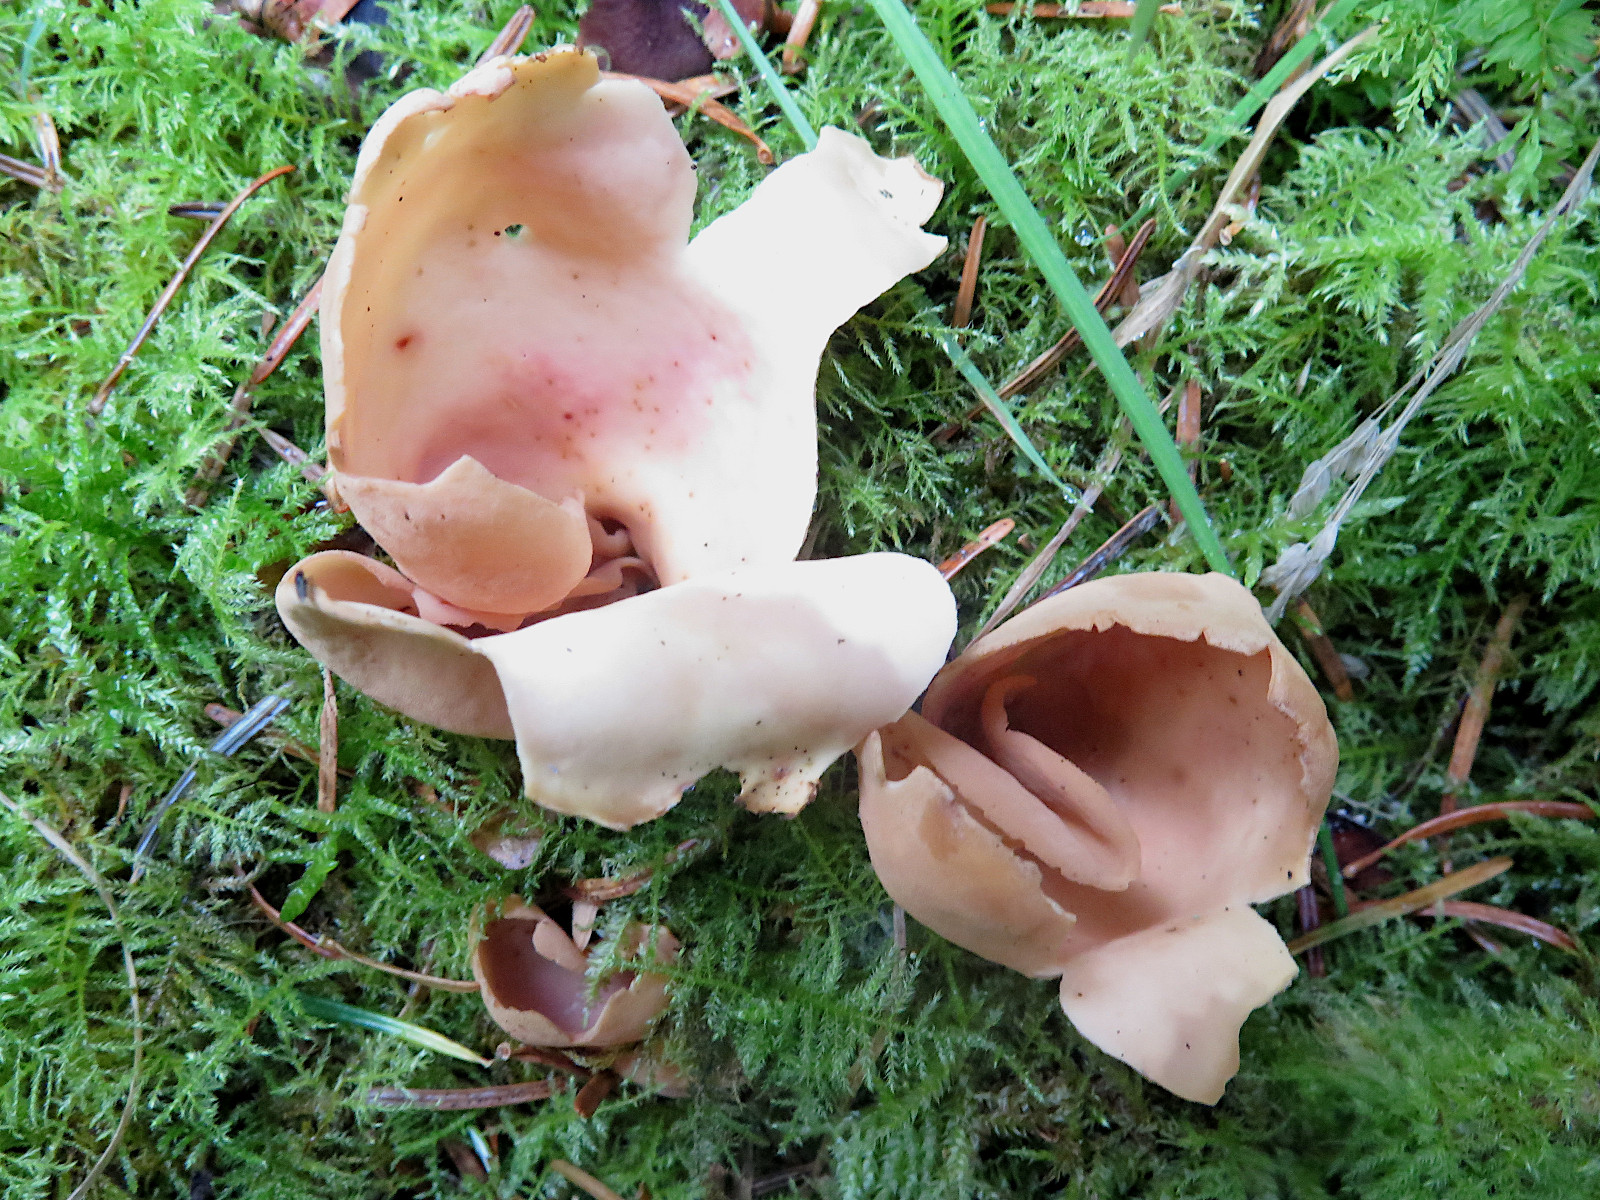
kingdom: Fungi
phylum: Ascomycota
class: Pezizomycetes
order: Pezizales
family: Otideaceae
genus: Otidea
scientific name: Otidea onotica
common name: æsel-ørebæger
